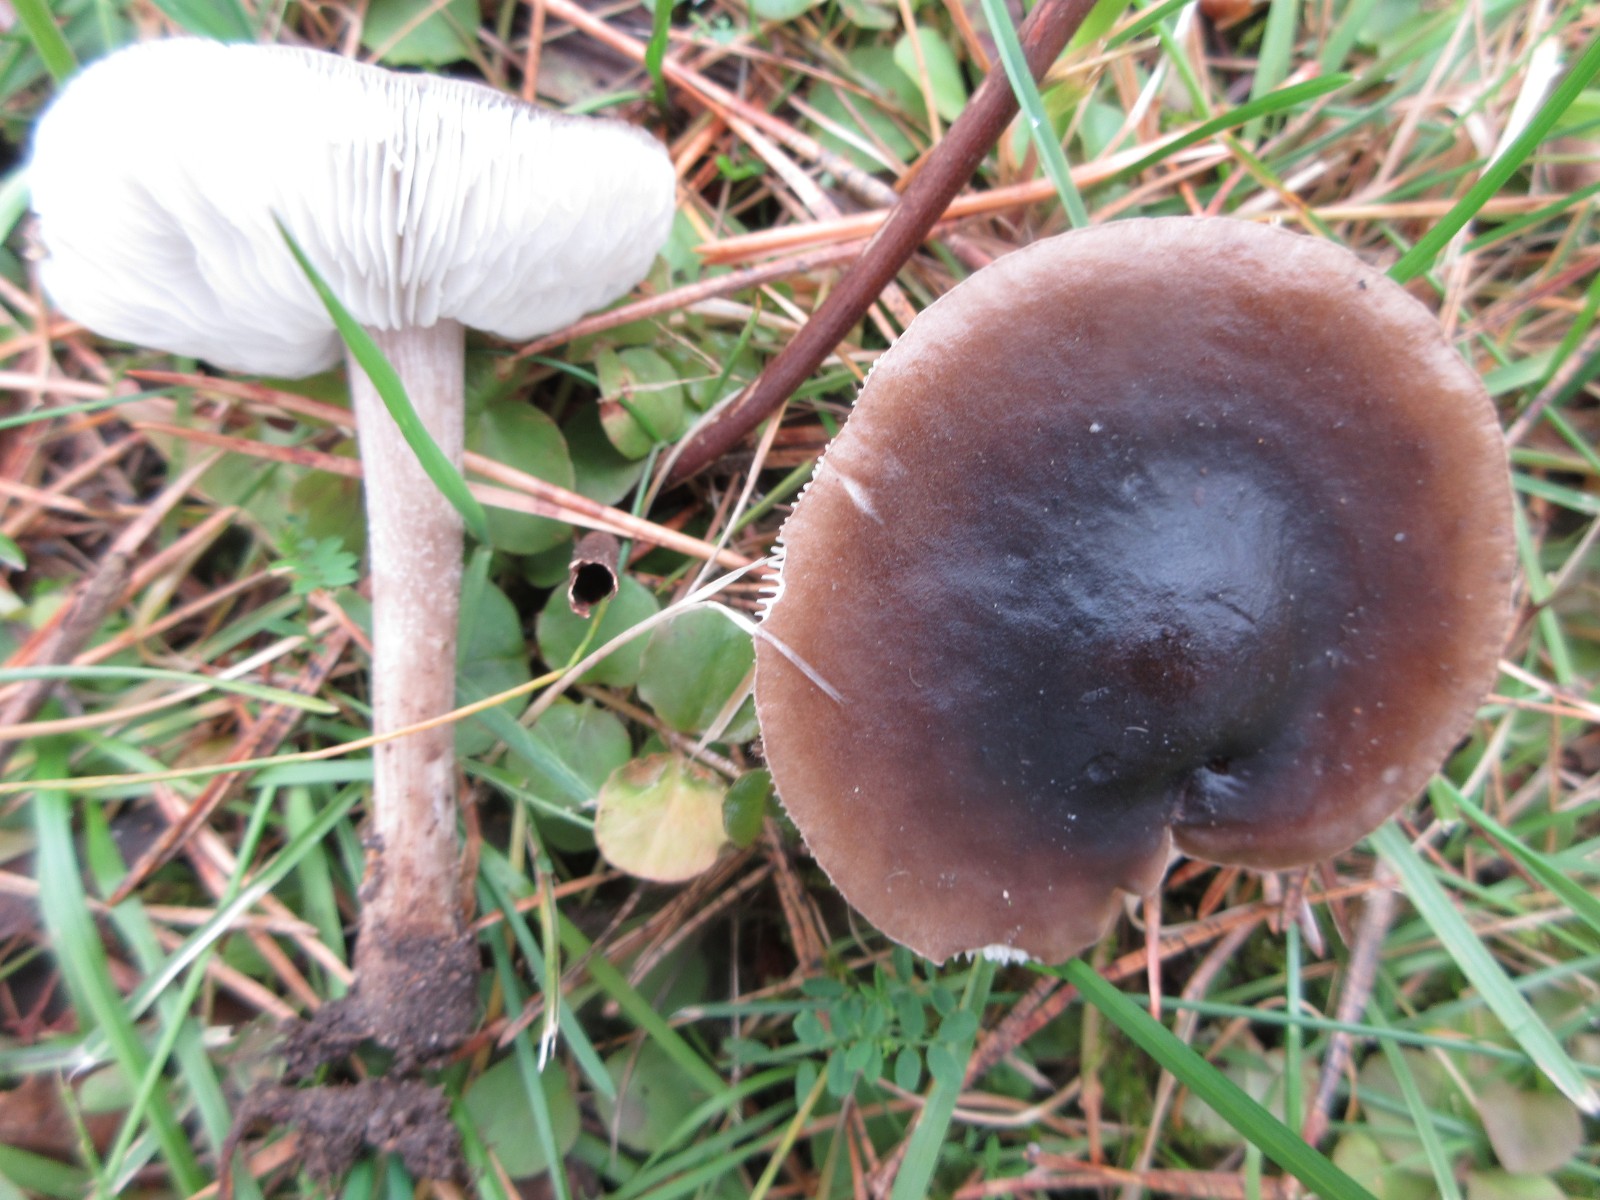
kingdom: Fungi
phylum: Basidiomycota
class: Agaricomycetes
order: Agaricales
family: Tricholomataceae
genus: Melanoleuca
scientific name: Melanoleuca
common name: munkehat
